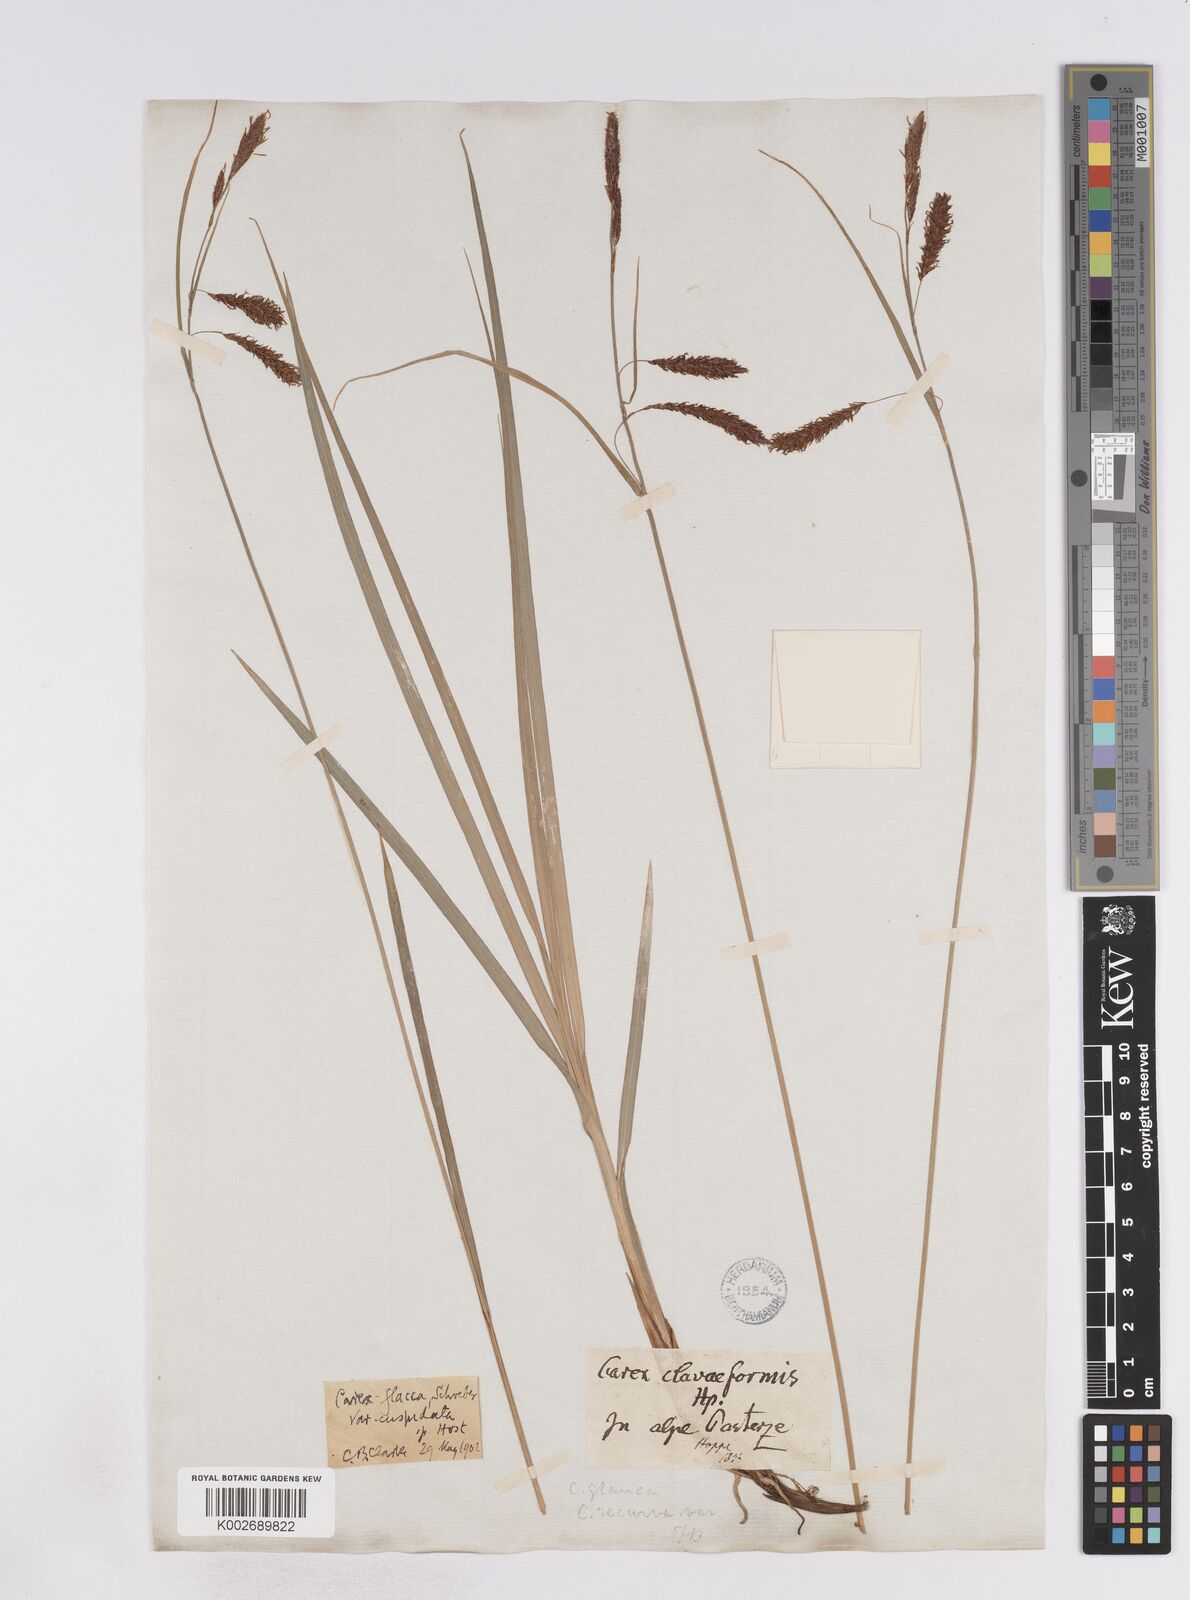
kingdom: Plantae
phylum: Tracheophyta
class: Liliopsida
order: Poales
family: Cyperaceae
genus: Carex
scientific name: Carex flacca
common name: Glaucous sedge
